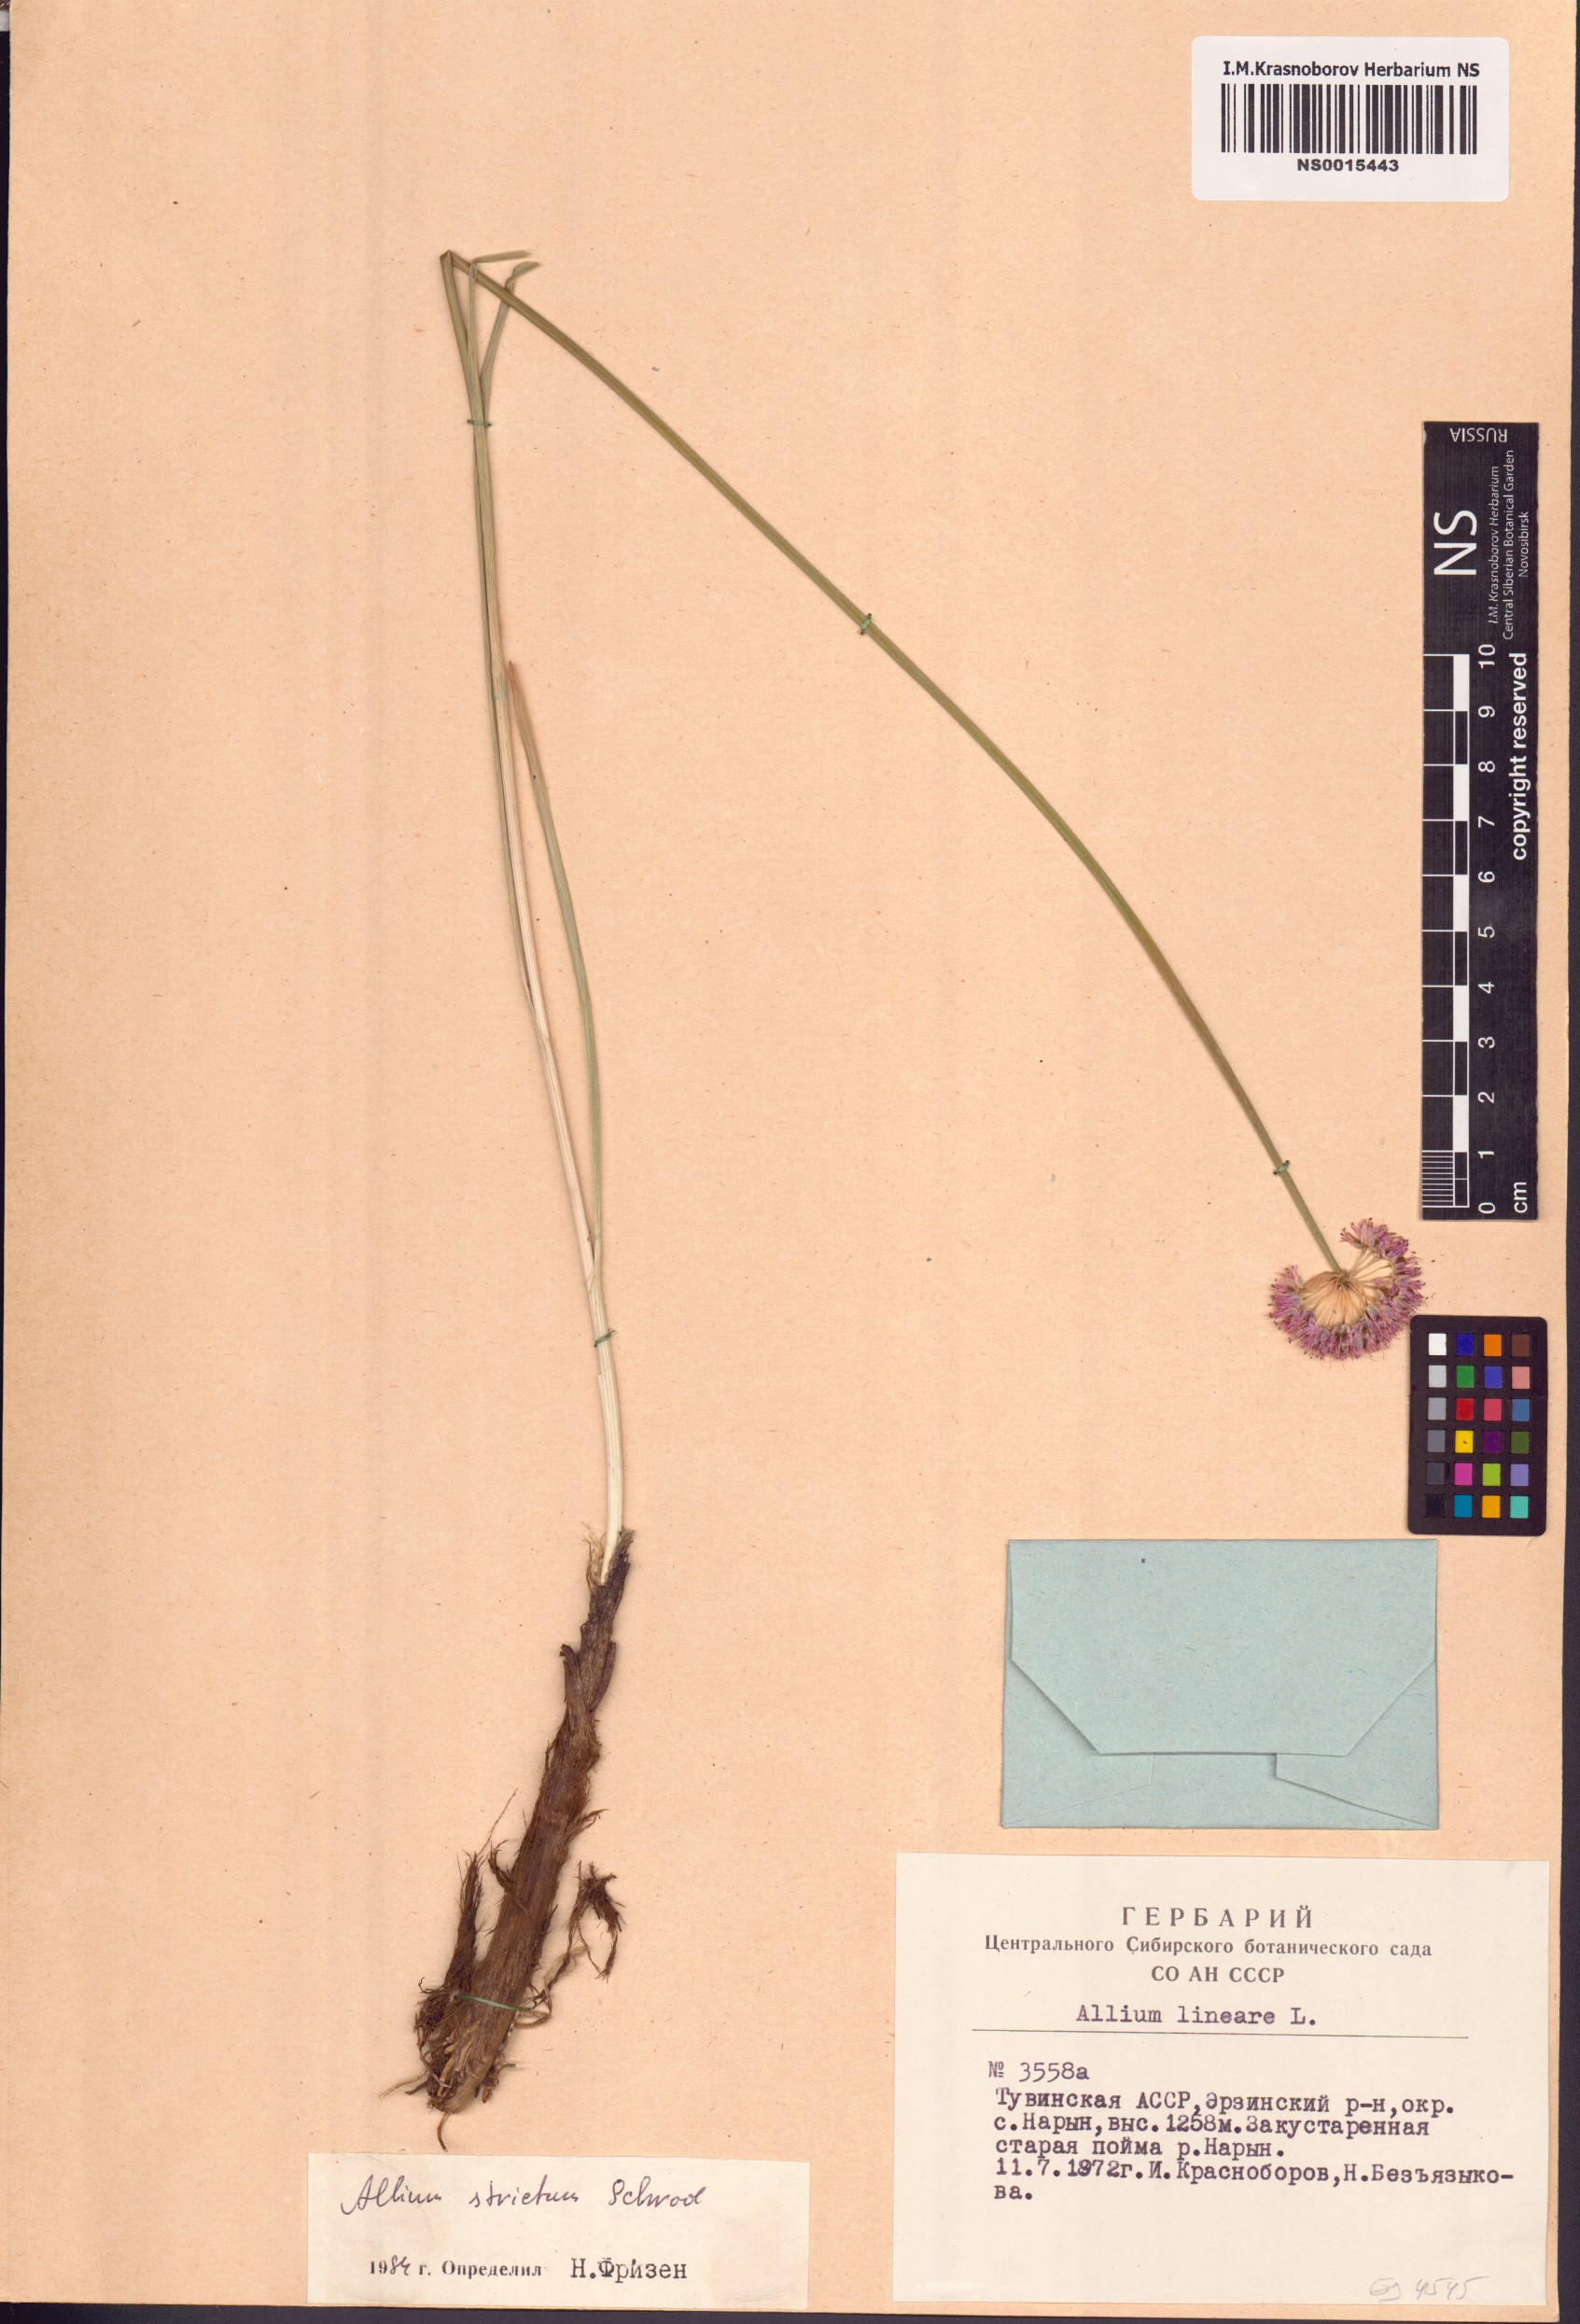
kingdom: Plantae
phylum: Tracheophyta
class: Liliopsida
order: Asparagales
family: Amaryllidaceae
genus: Allium
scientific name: Allium strictum
